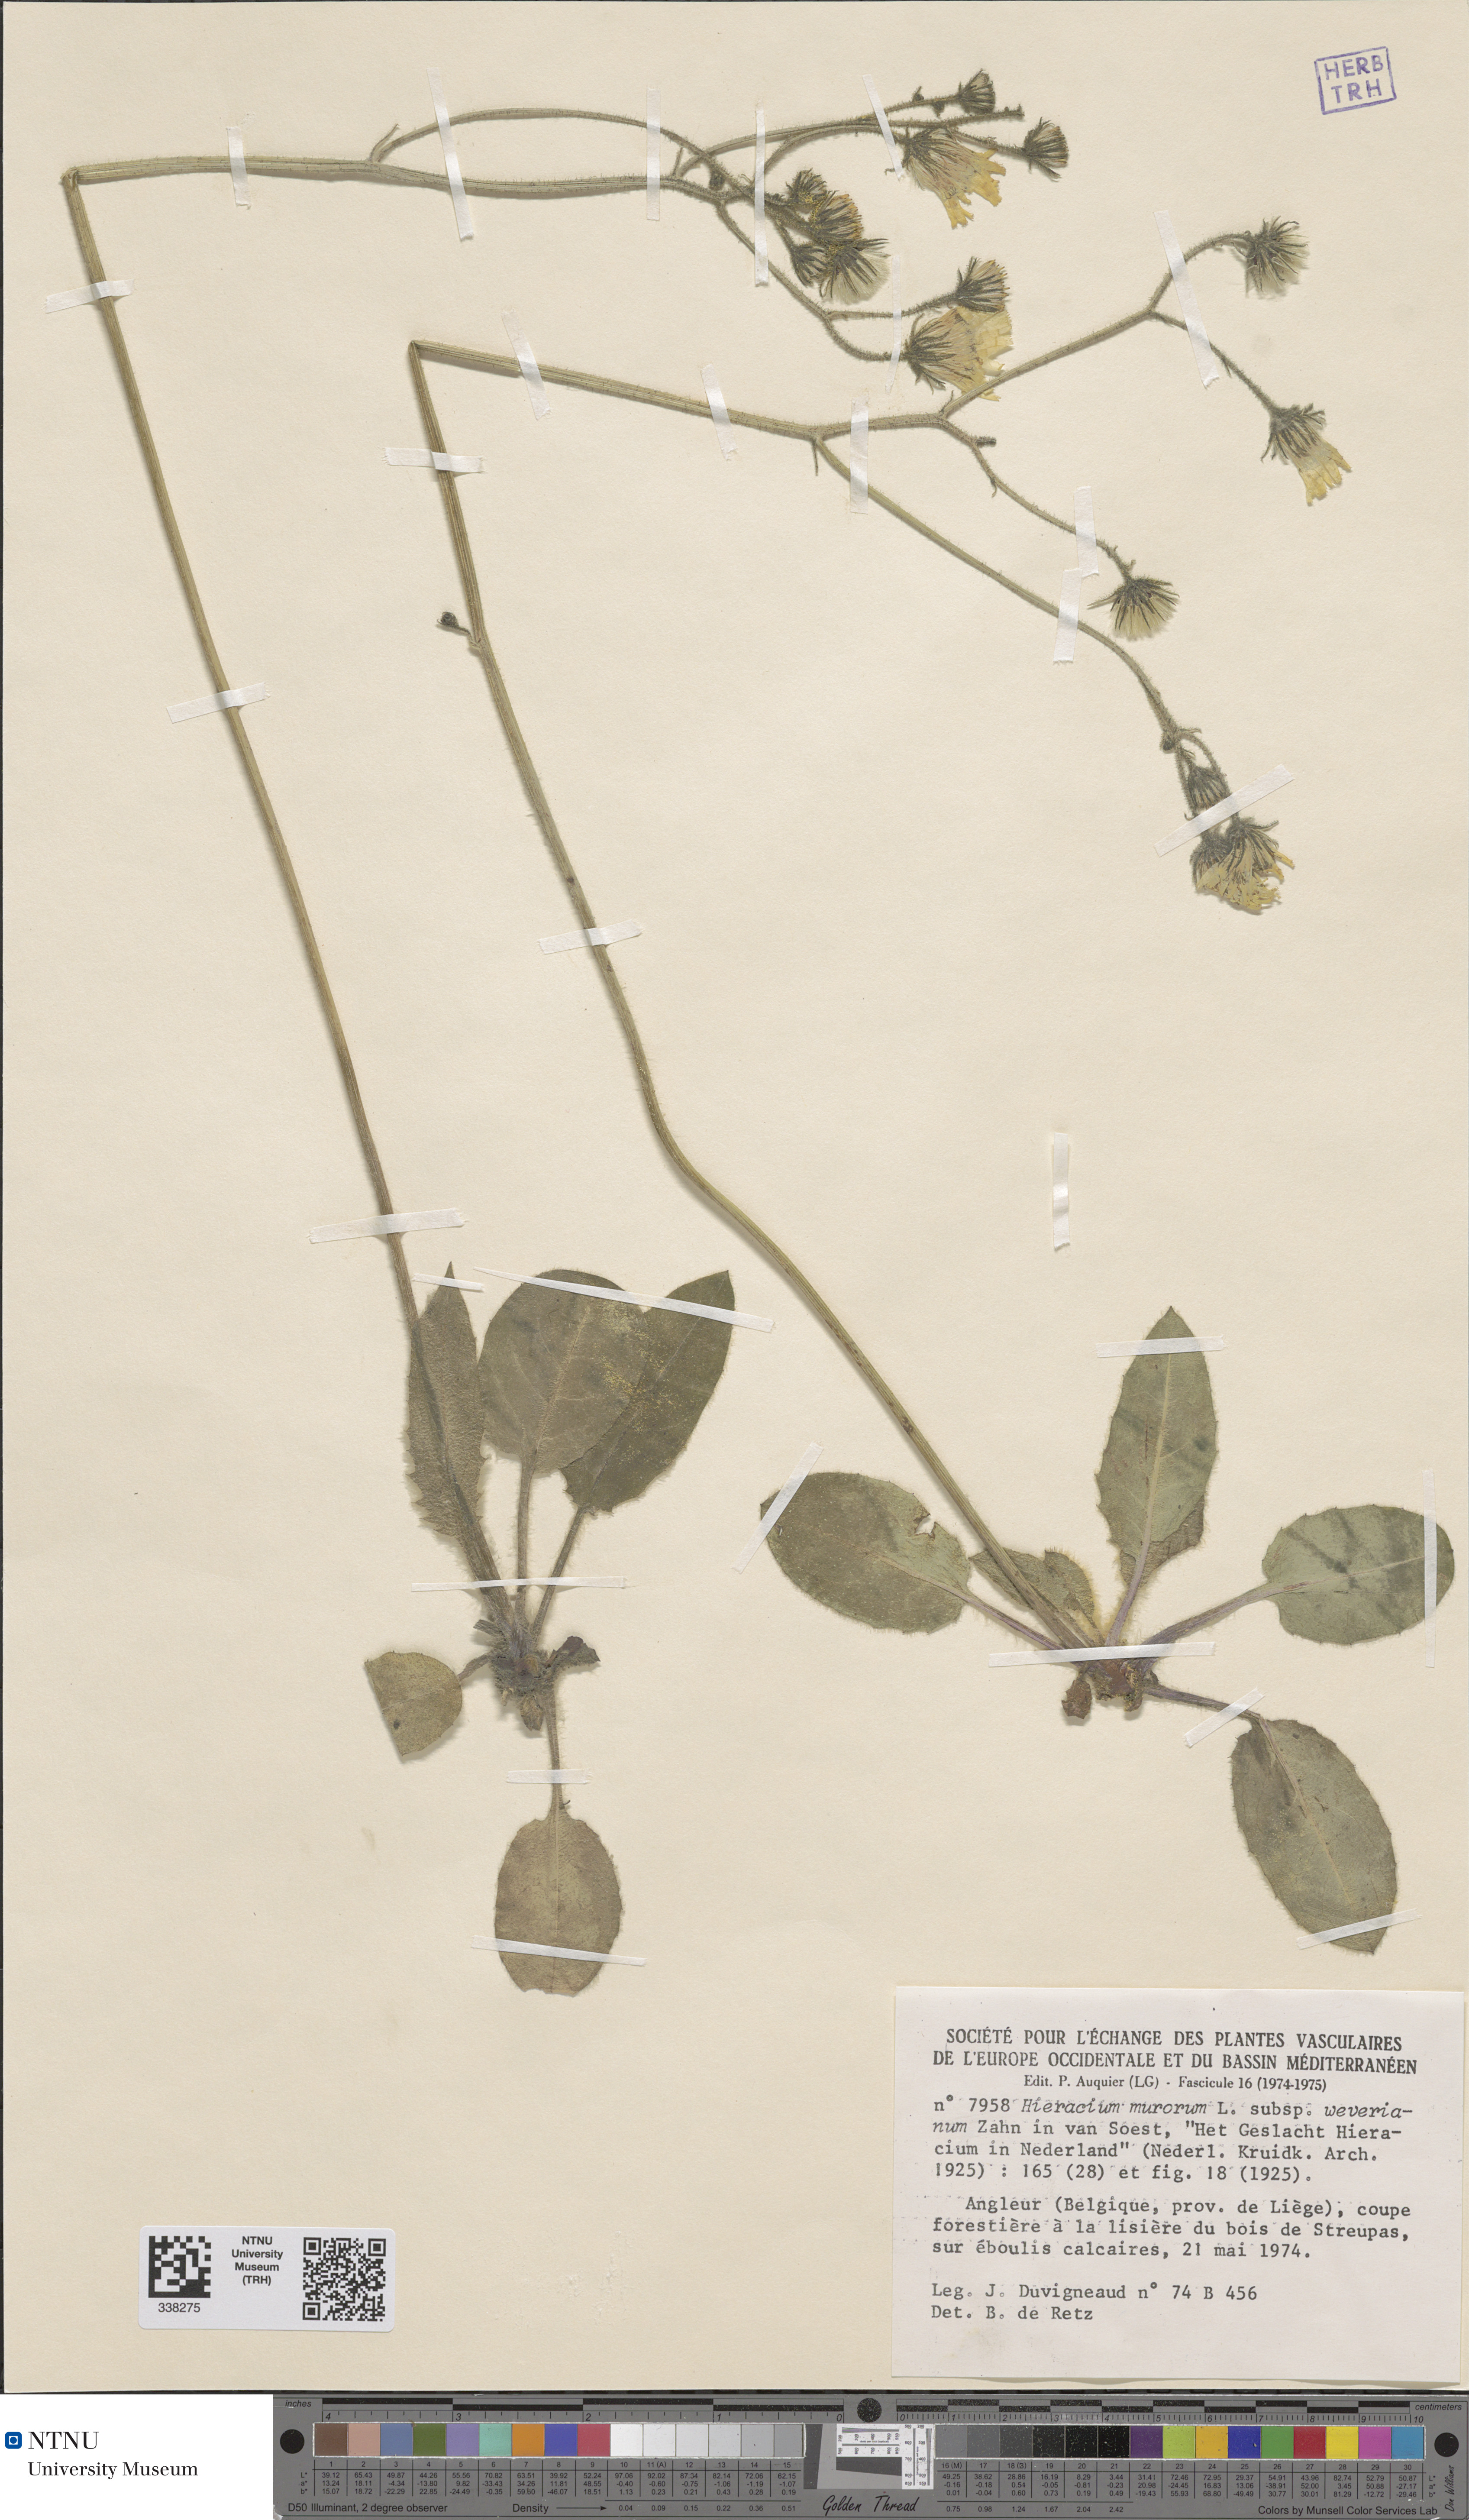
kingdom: Plantae
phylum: Tracheophyta
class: Magnoliopsida
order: Asterales
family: Asteraceae
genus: Hieracium
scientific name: Hieracium murorum
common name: Wall hawkweed
